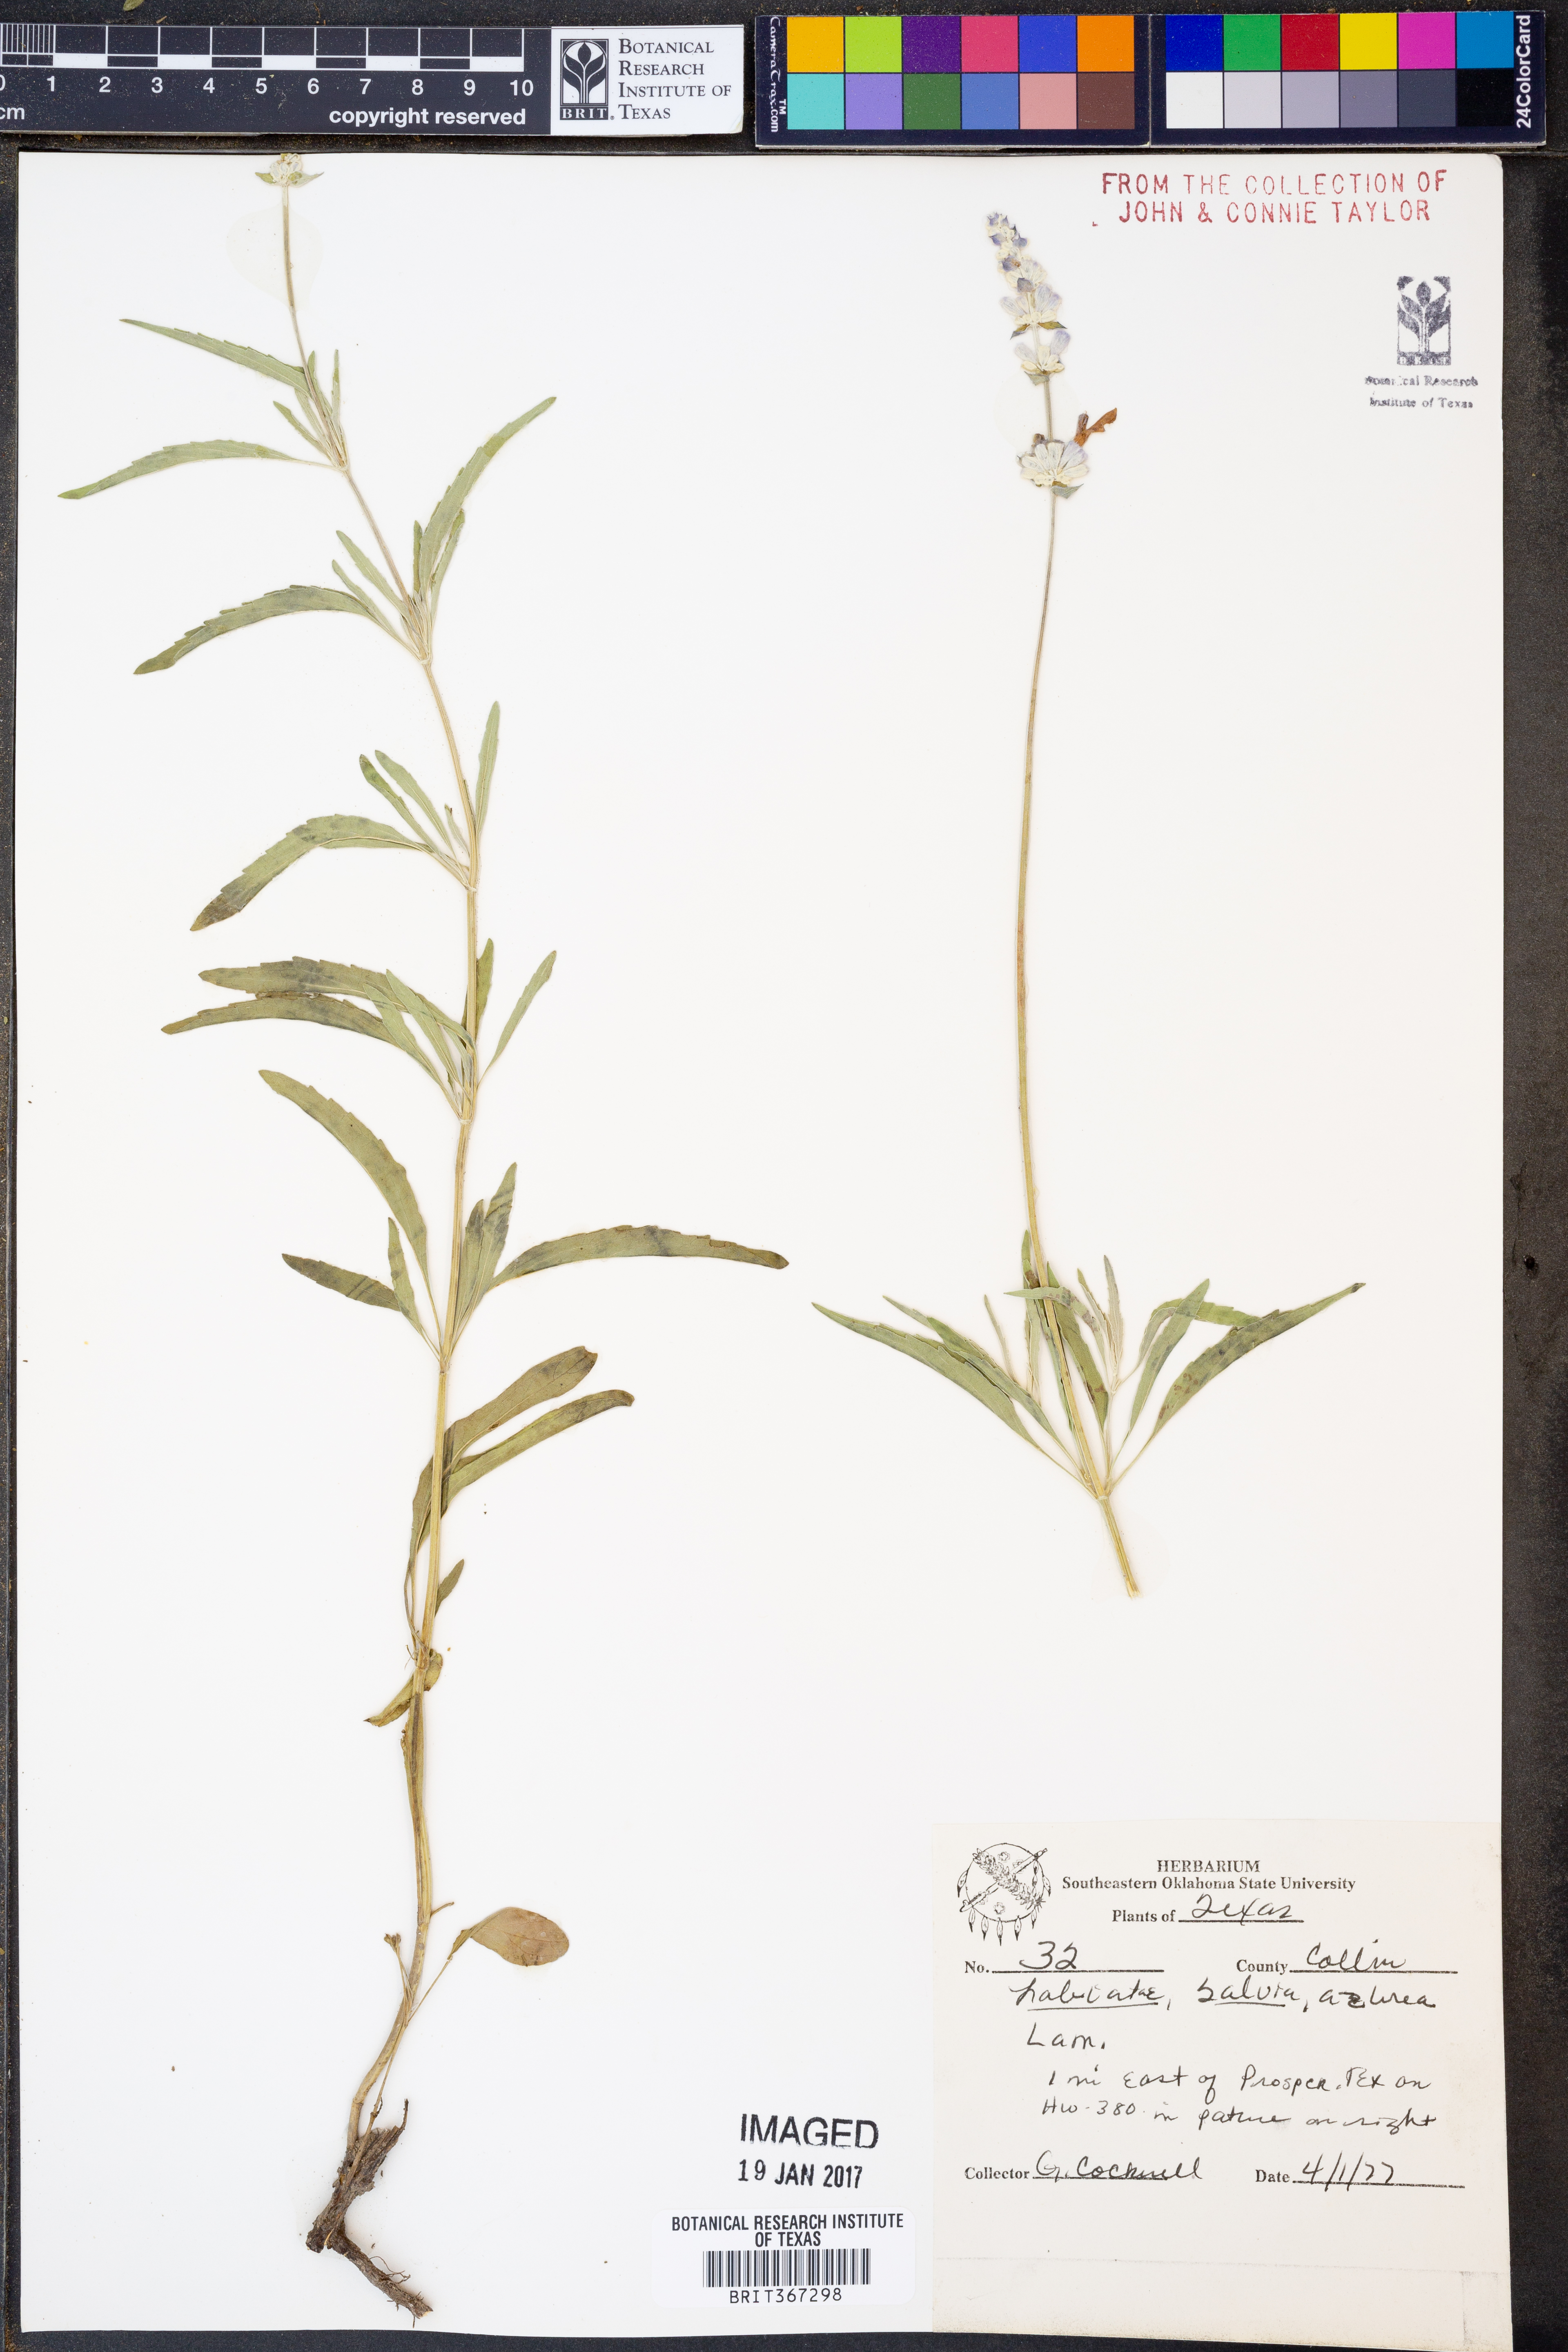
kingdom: Plantae
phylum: Tracheophyta
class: Magnoliopsida
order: Lamiales
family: Lamiaceae
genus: Salvia
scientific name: Salvia aurea
